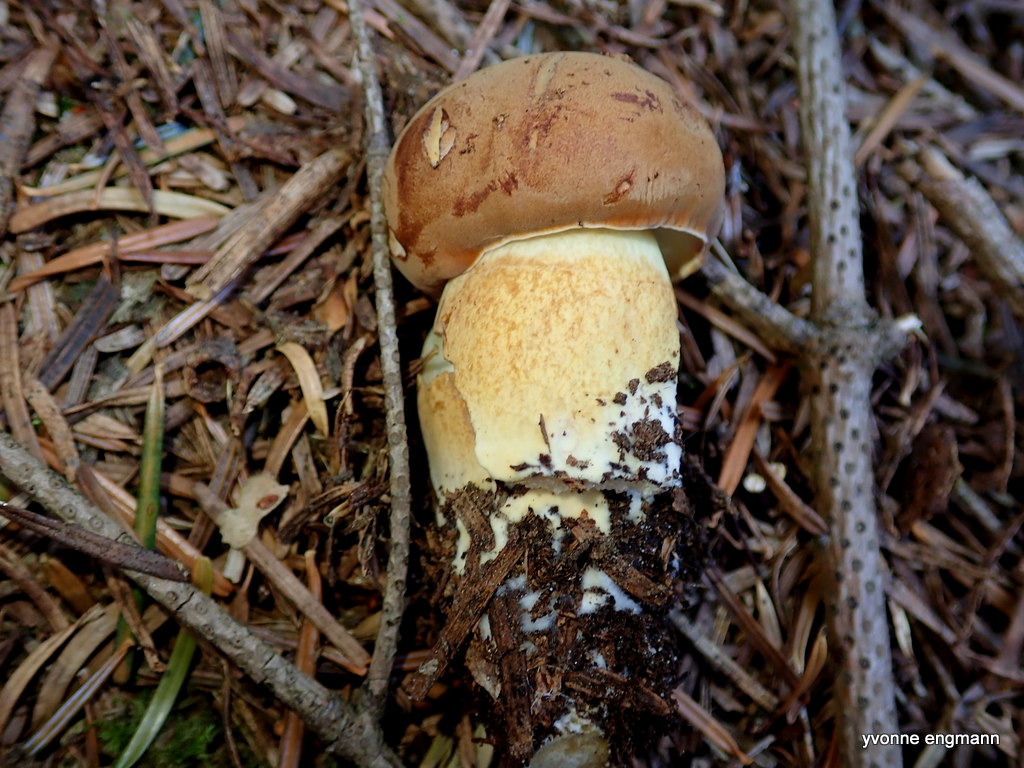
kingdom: Fungi
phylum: Basidiomycota
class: Agaricomycetes
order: Boletales
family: Boletaceae
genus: Imleria
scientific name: Imleria badia
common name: brunstokket rørhat
